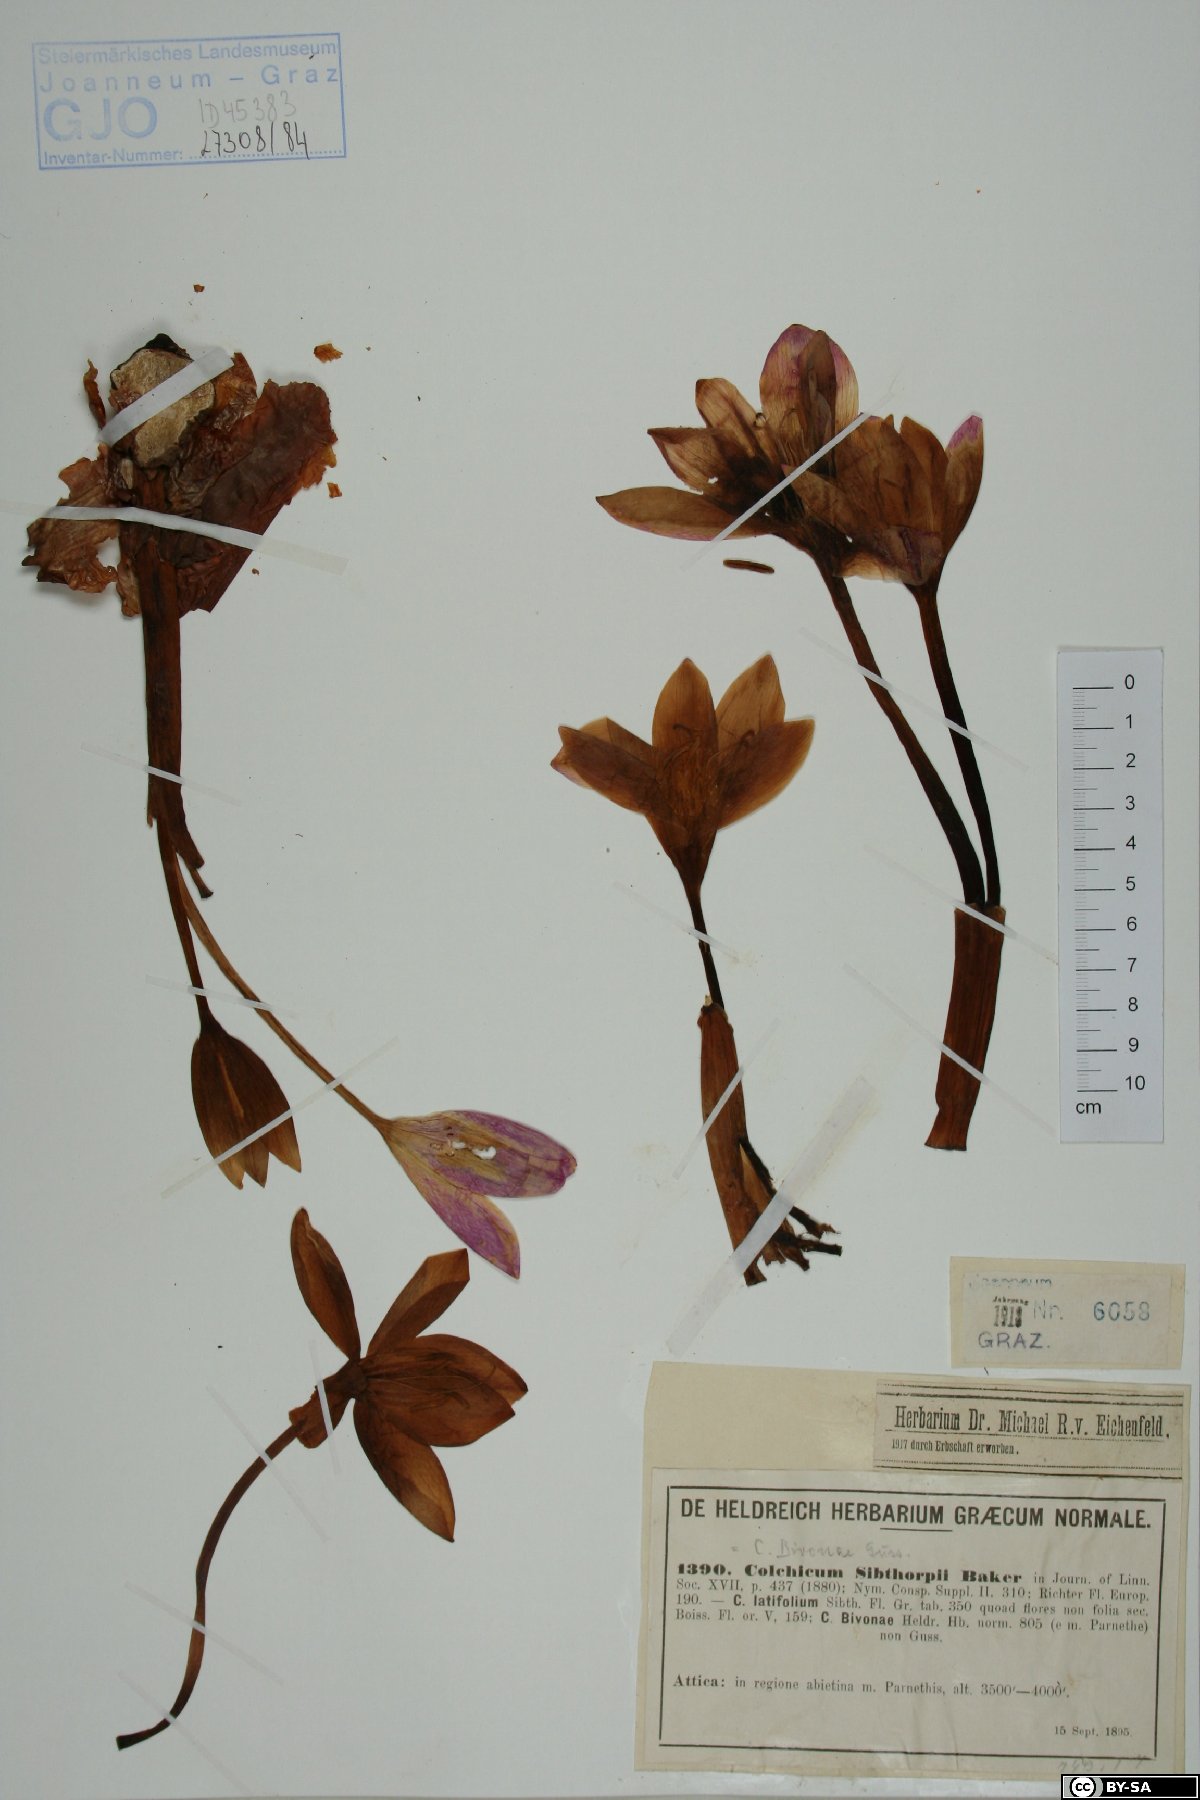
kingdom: Plantae
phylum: Tracheophyta
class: Liliopsida
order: Liliales
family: Colchicaceae
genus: Colchicum
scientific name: Colchicum bivonae
